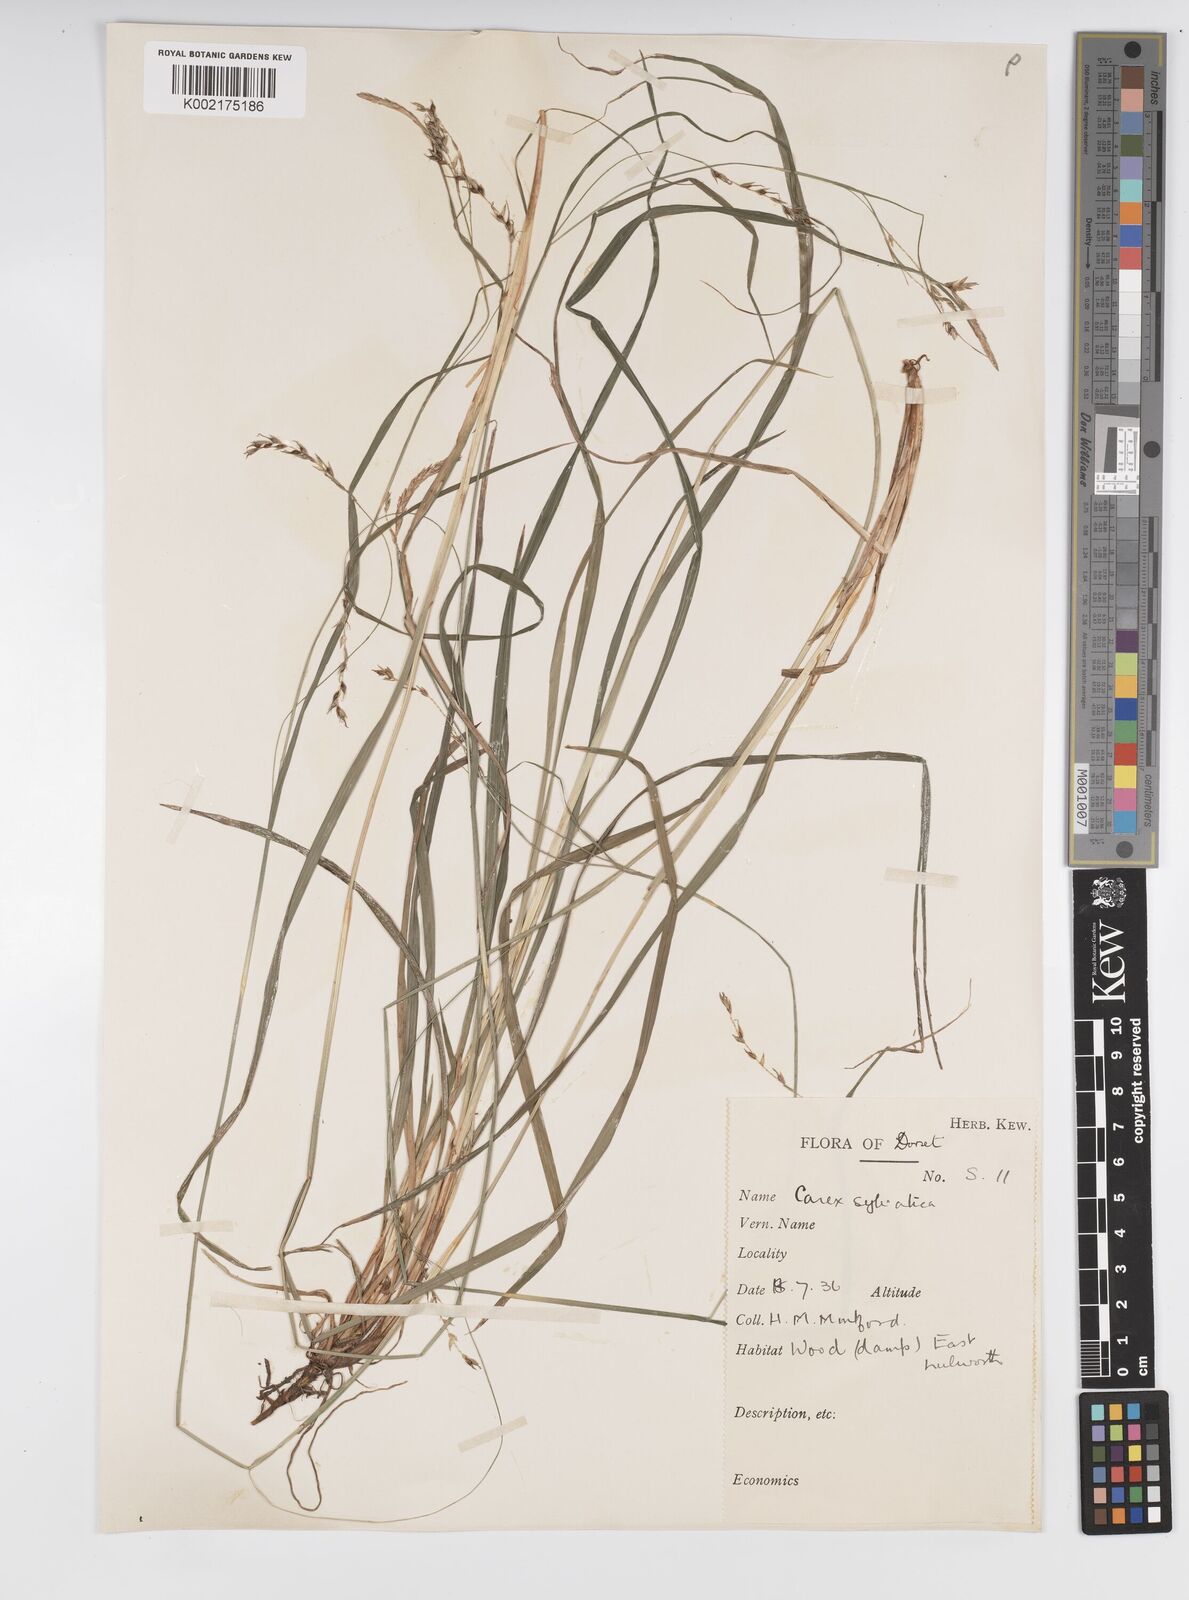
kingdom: Plantae
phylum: Tracheophyta
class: Liliopsida
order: Poales
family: Cyperaceae
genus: Carex
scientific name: Carex sylvatica
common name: Wood-sedge
